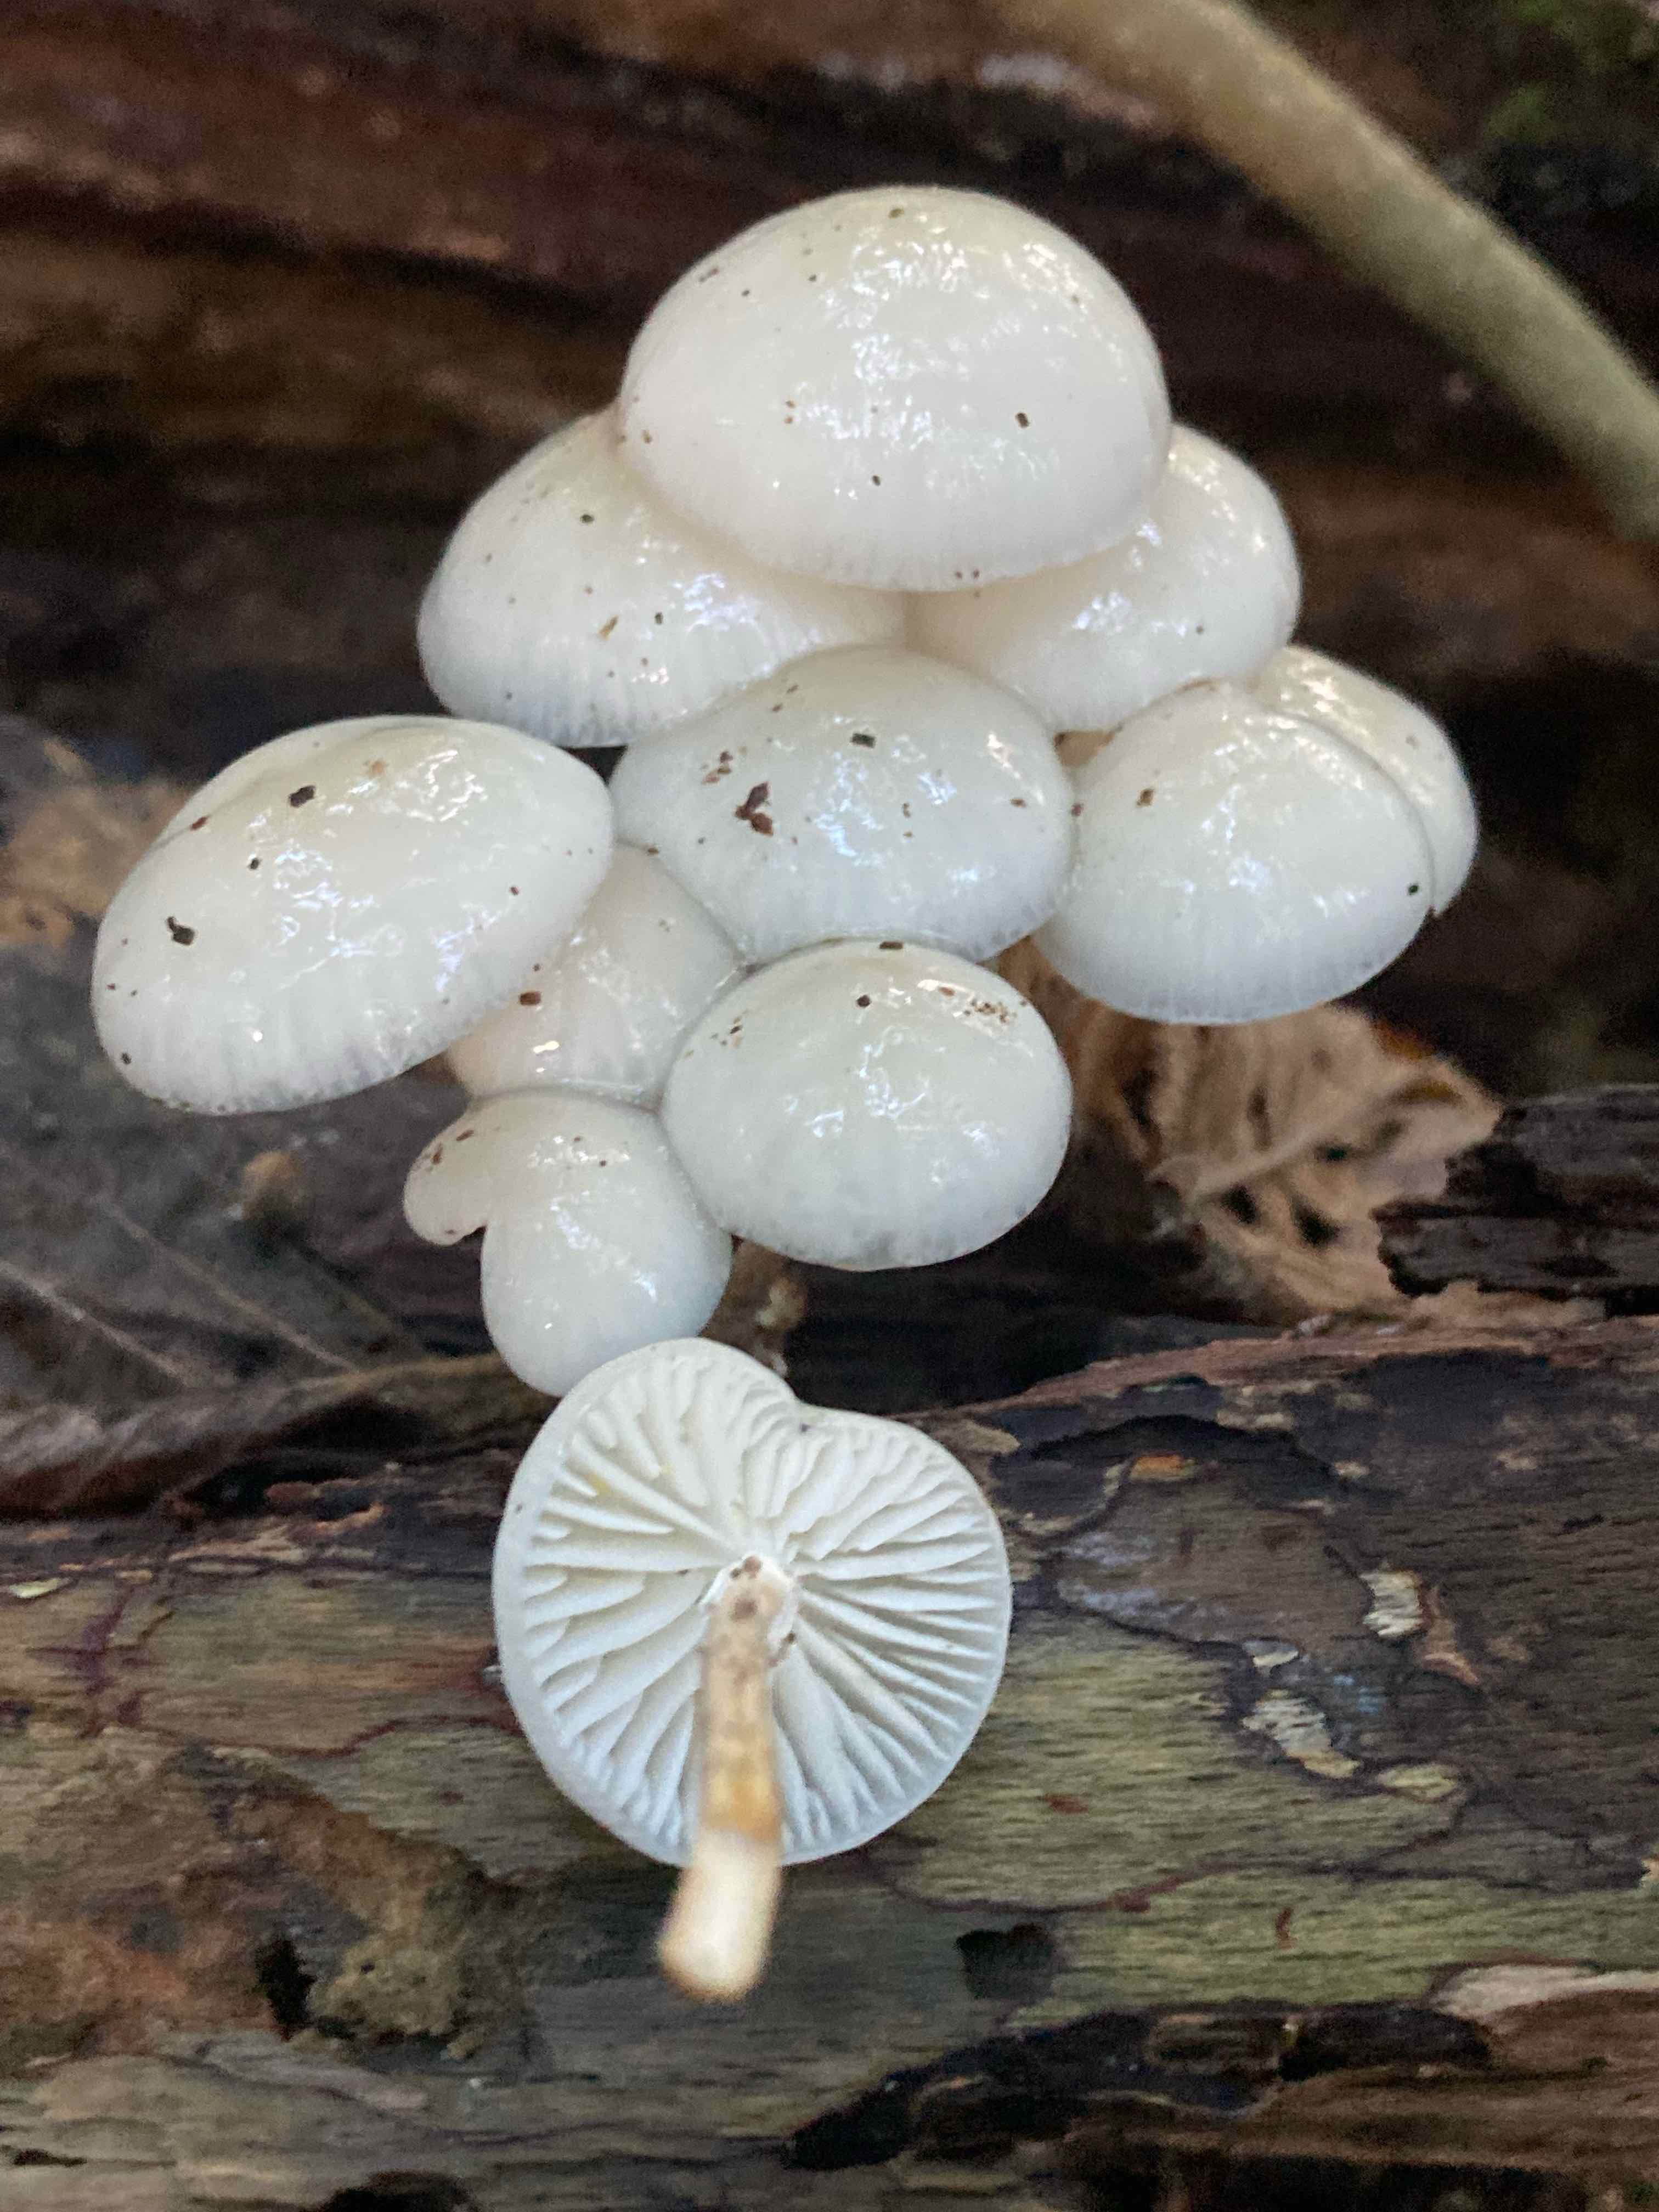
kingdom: Fungi
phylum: Basidiomycota
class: Agaricomycetes
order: Agaricales
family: Physalacriaceae
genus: Mucidula
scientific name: Mucidula mucida
